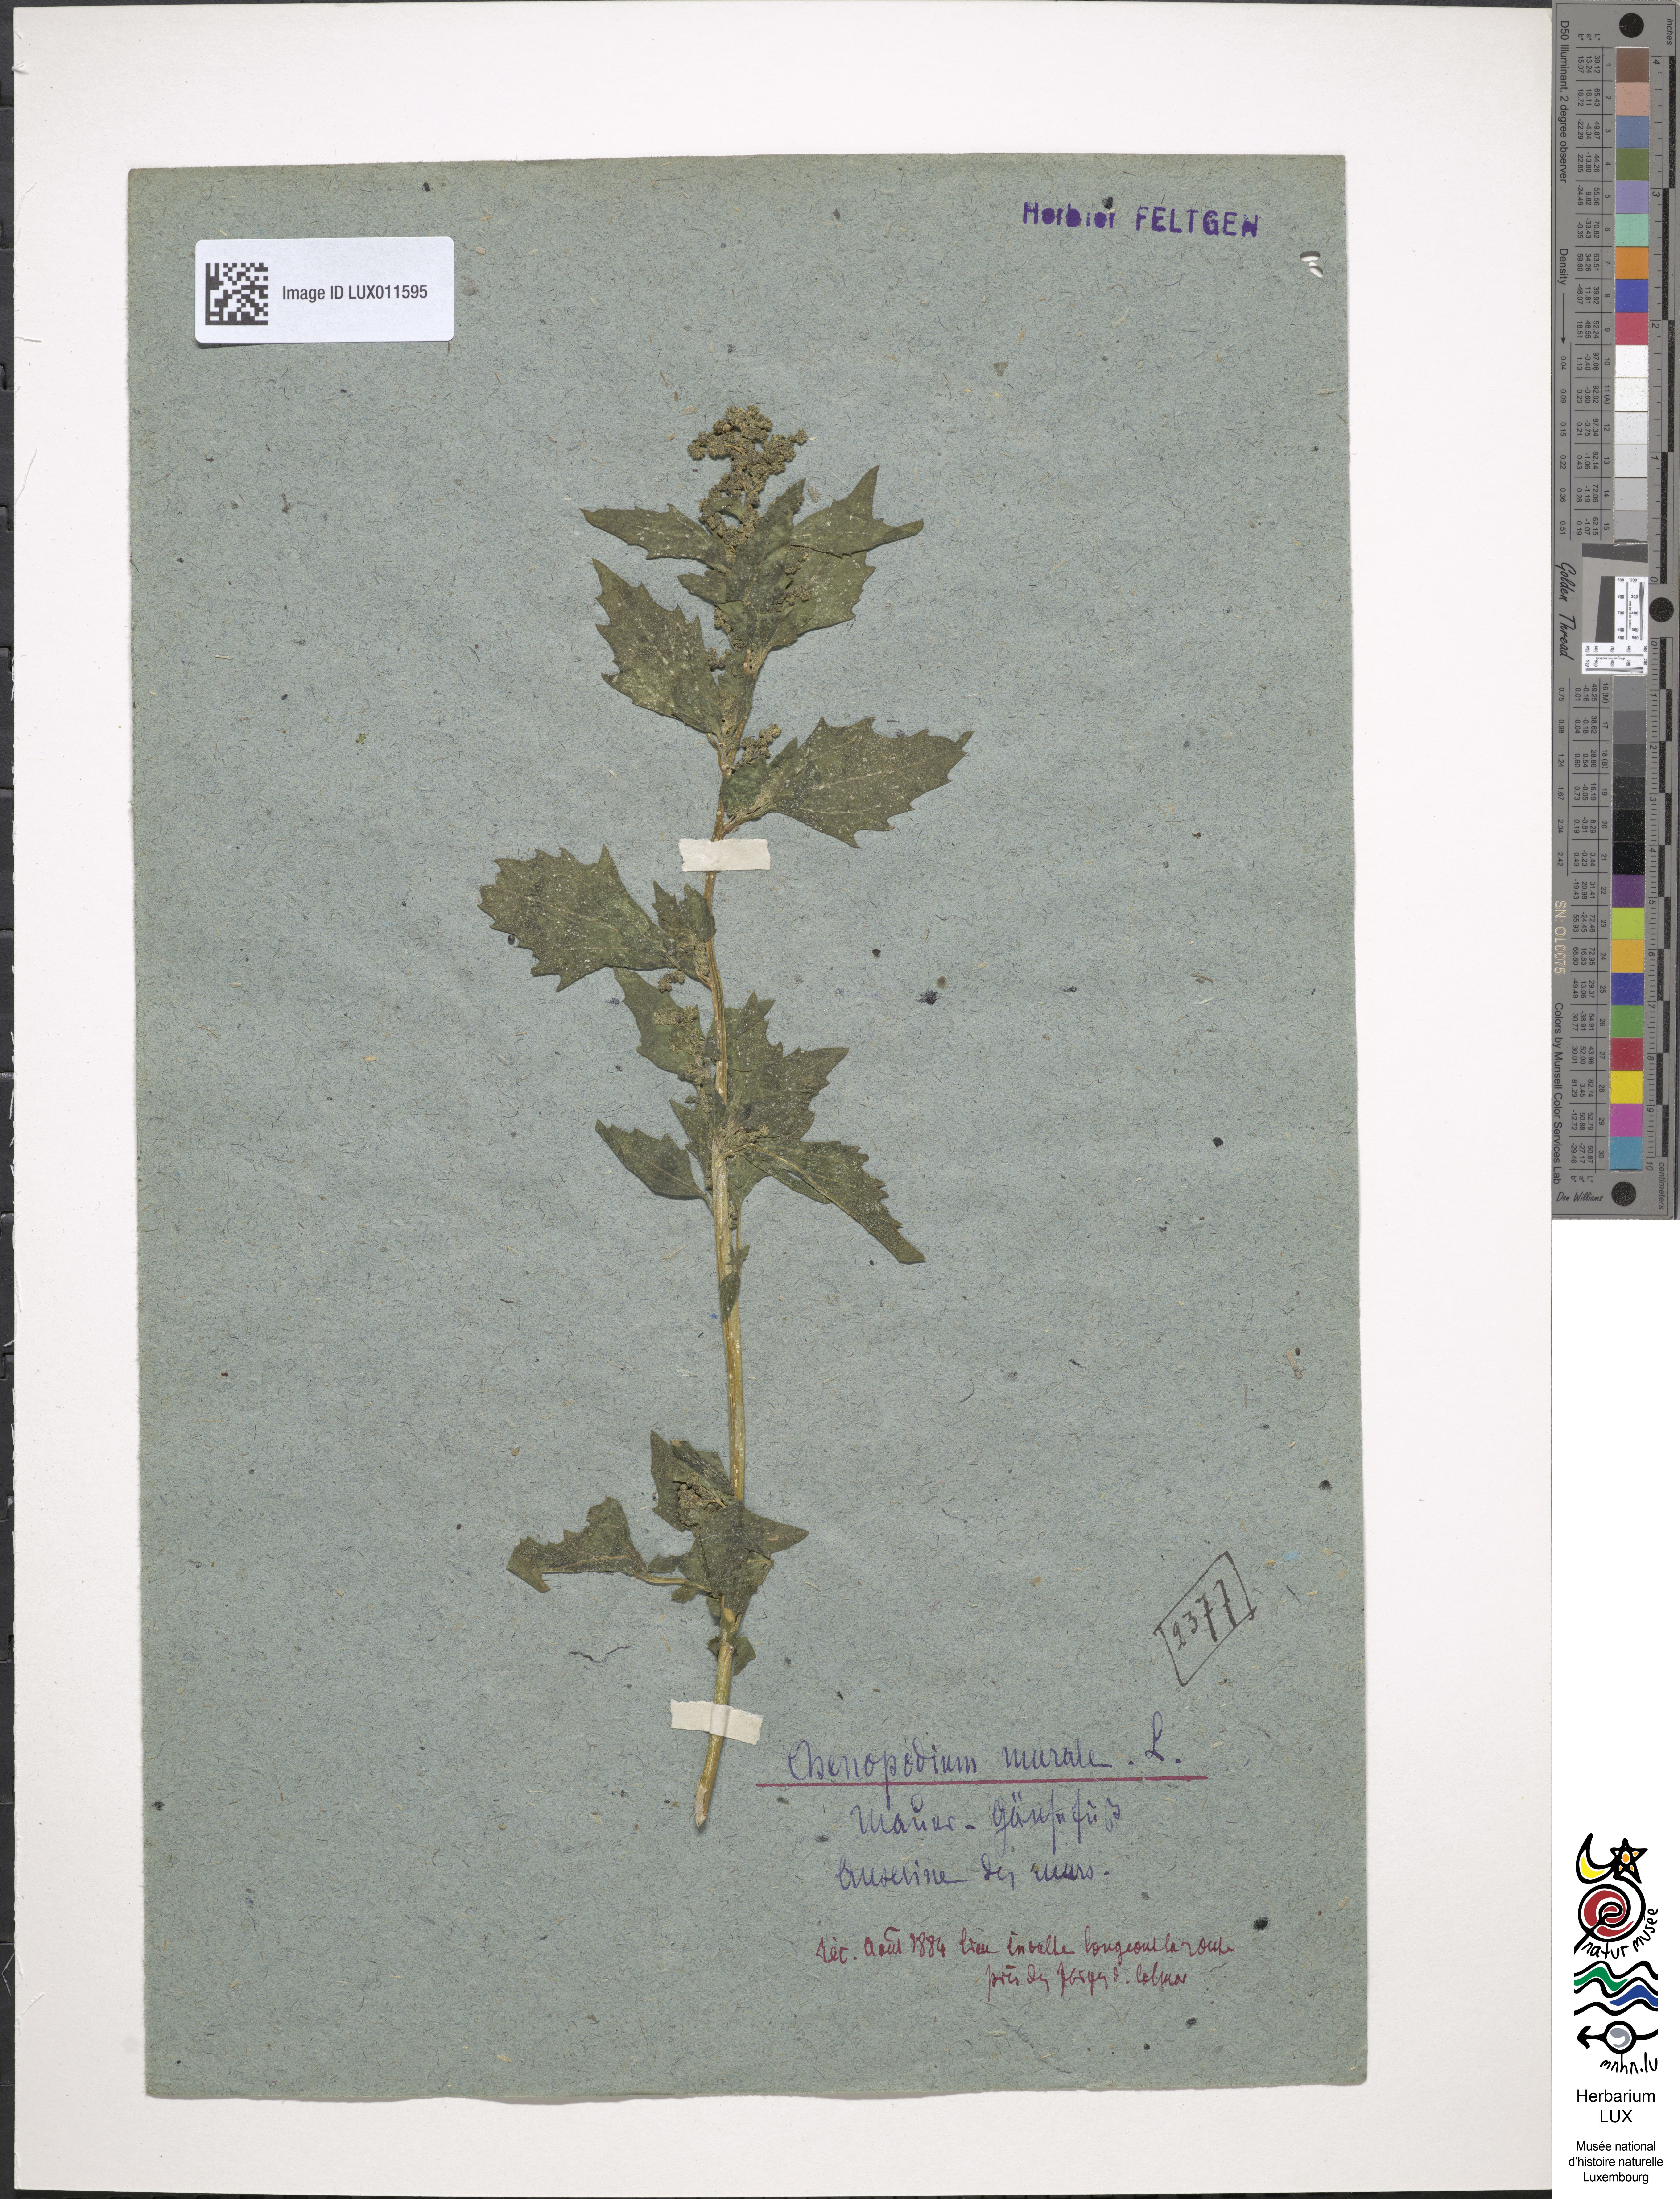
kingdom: Plantae
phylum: Tracheophyta
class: Magnoliopsida
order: Caryophyllales
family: Amaranthaceae
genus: Chenopodiastrum
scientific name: Chenopodiastrum murale
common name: Sowbane
